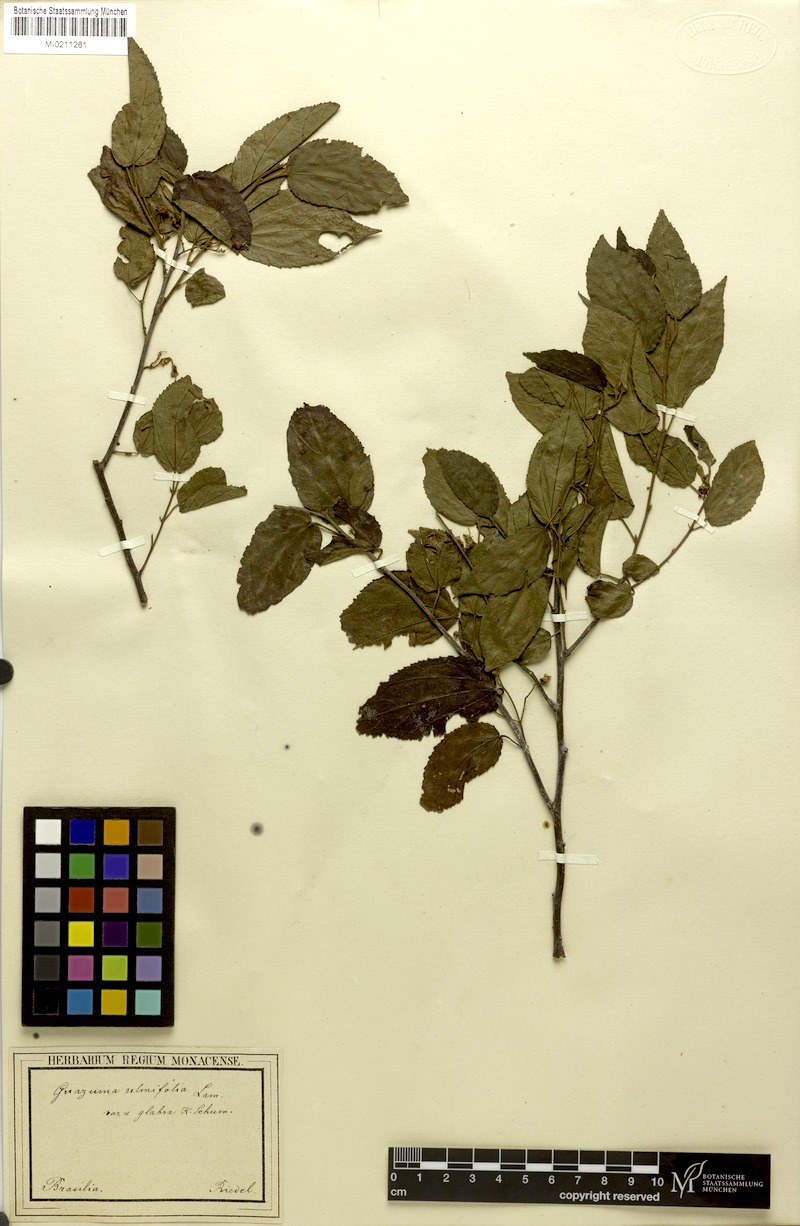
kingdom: Plantae
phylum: Tracheophyta
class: Magnoliopsida
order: Malvales
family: Malvaceae
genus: Guazuma
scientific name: Guazuma ulmifolia
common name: Bastard-cedar
